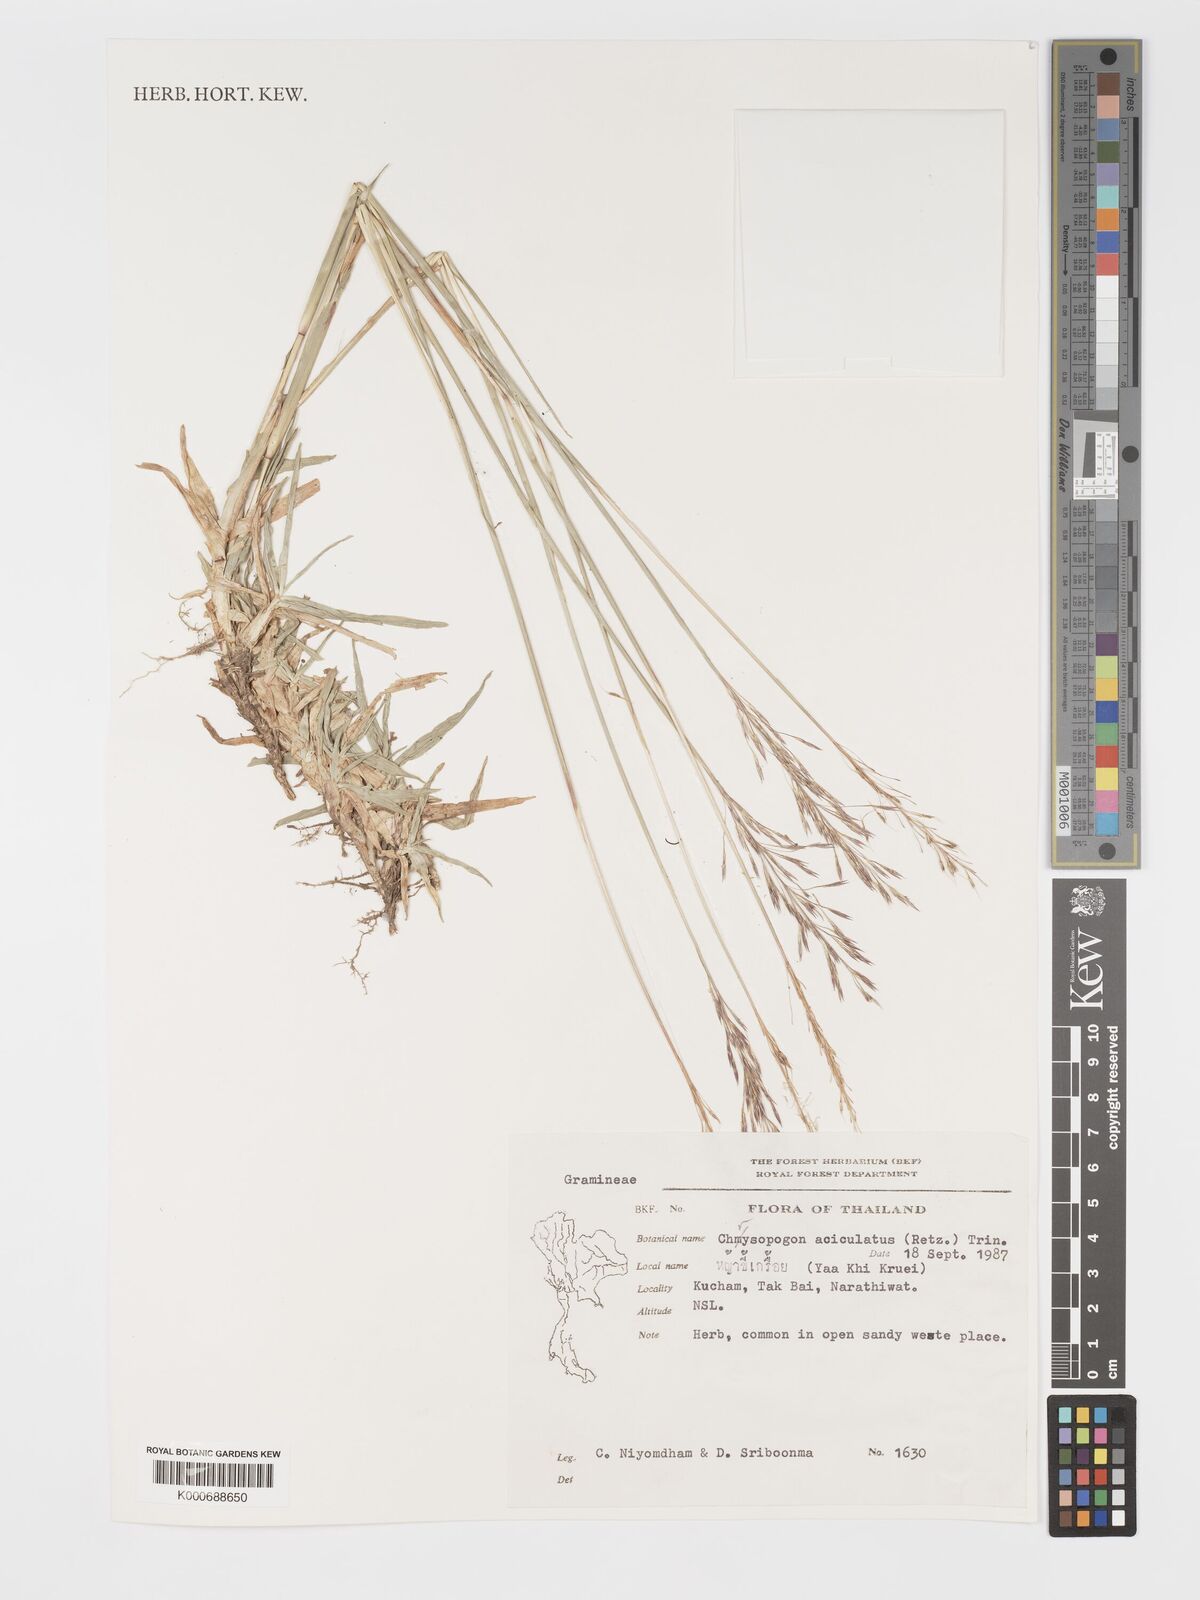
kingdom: Plantae
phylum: Tracheophyta
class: Liliopsida
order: Poales
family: Poaceae
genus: Chrysopogon
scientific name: Chrysopogon aciculatus
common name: Pilipiliula
